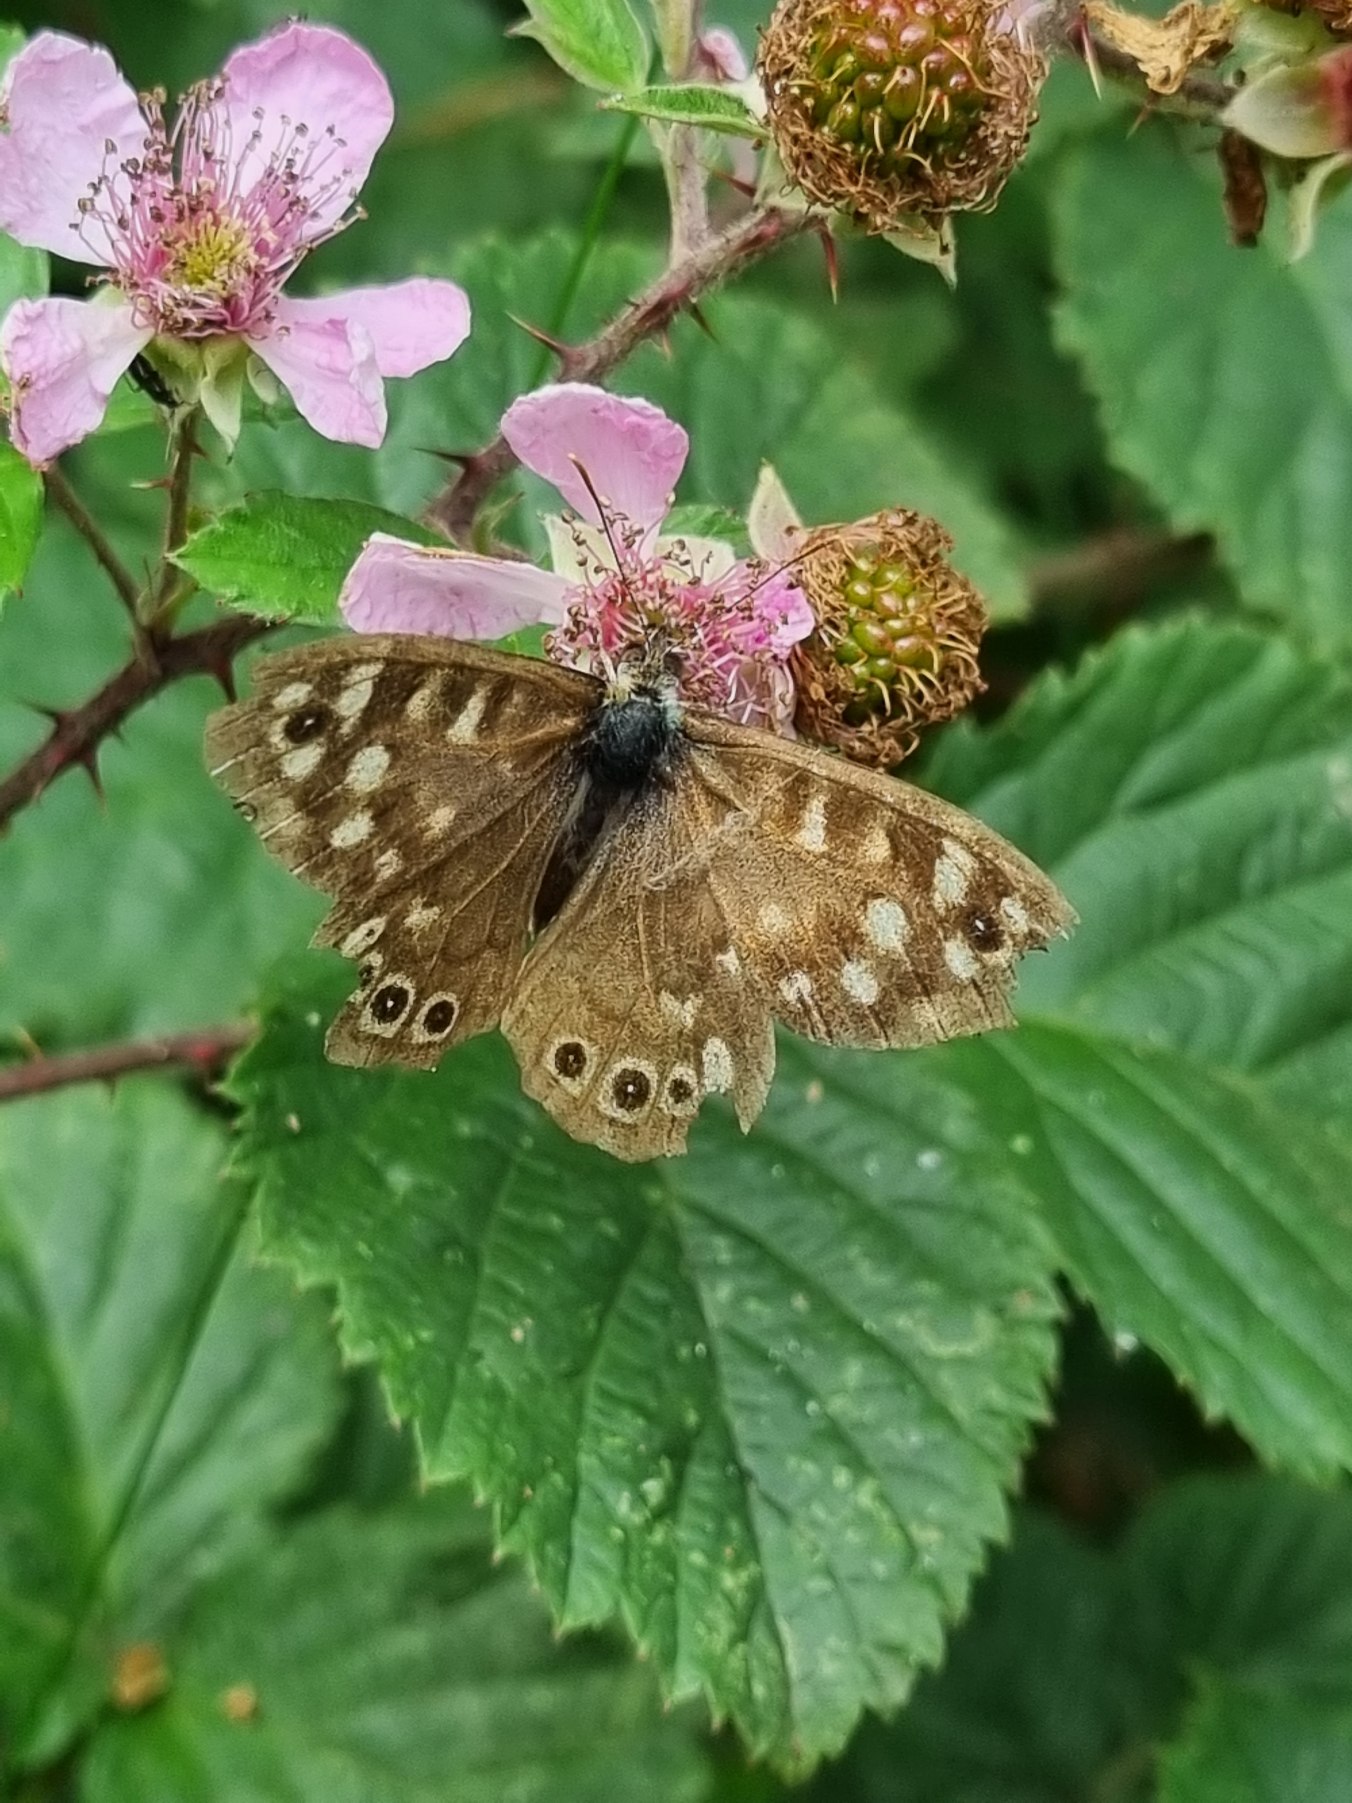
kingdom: Animalia
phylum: Arthropoda
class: Insecta
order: Lepidoptera
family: Nymphalidae
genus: Pararge
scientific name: Pararge aegeria
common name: Skovrandøje
